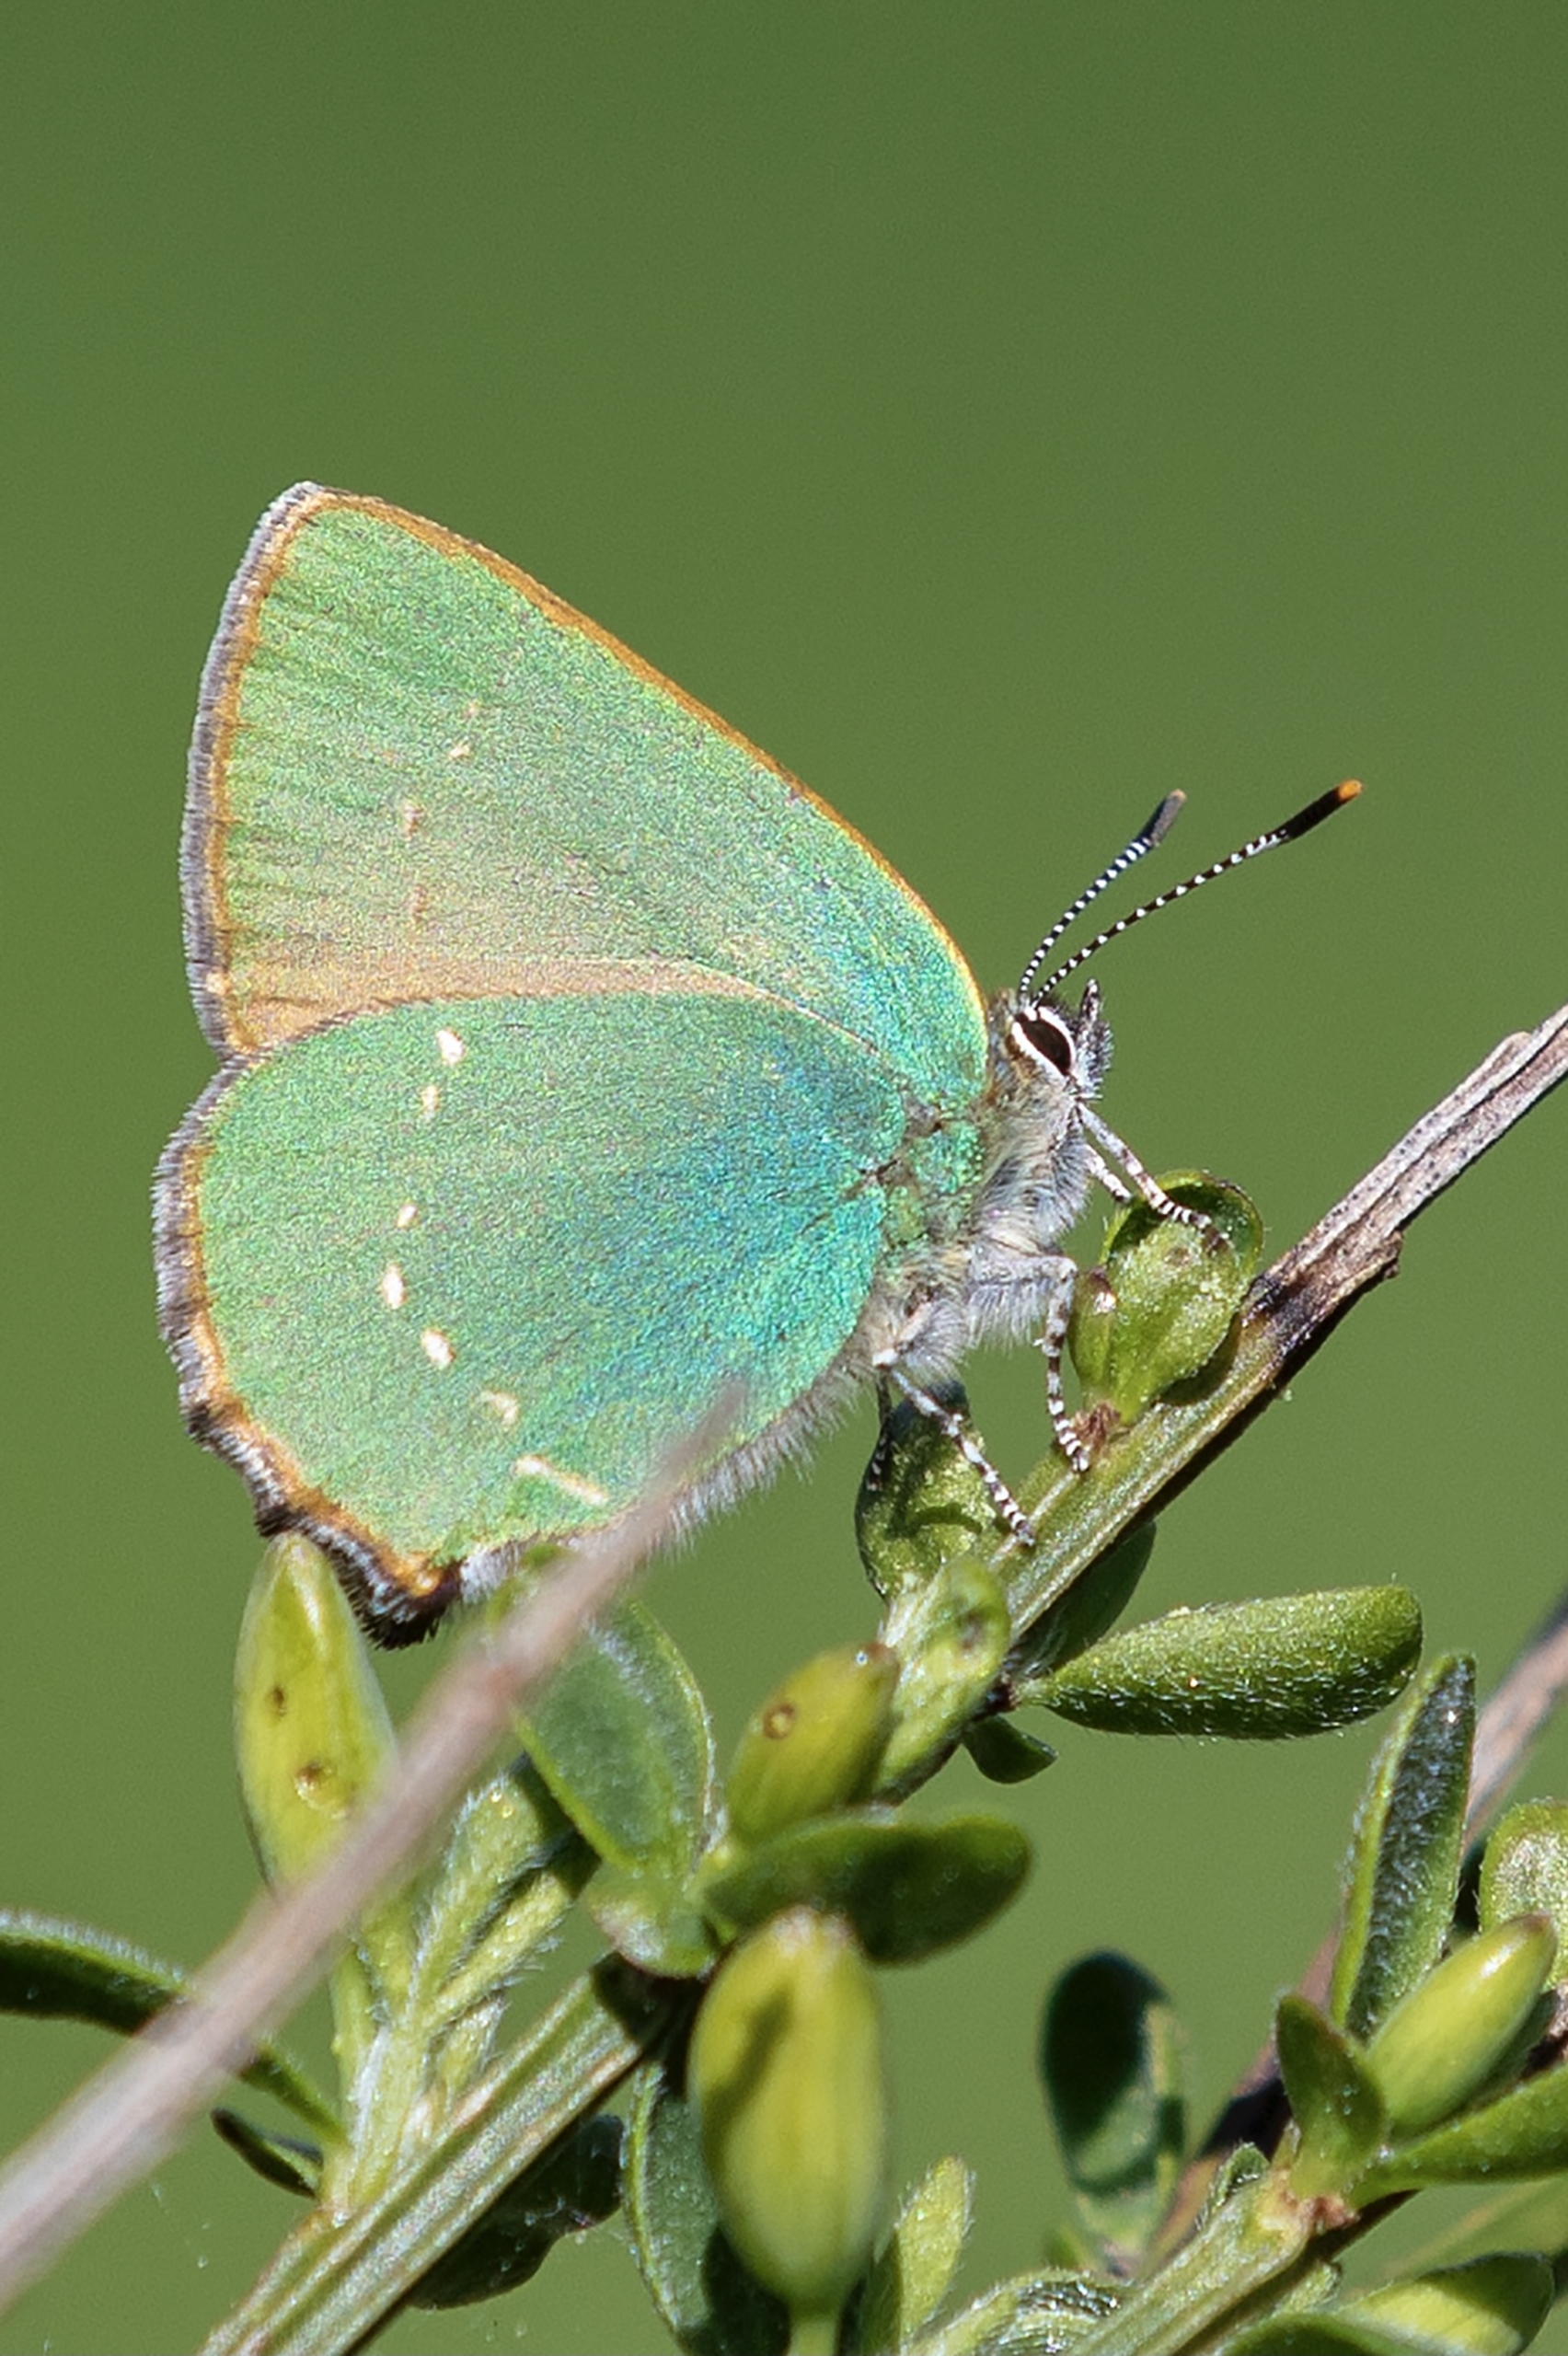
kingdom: Animalia
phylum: Arthropoda
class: Insecta
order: Lepidoptera
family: Lycaenidae
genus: Callophrys
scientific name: Callophrys rubi
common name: Grøn busksommerfugl
